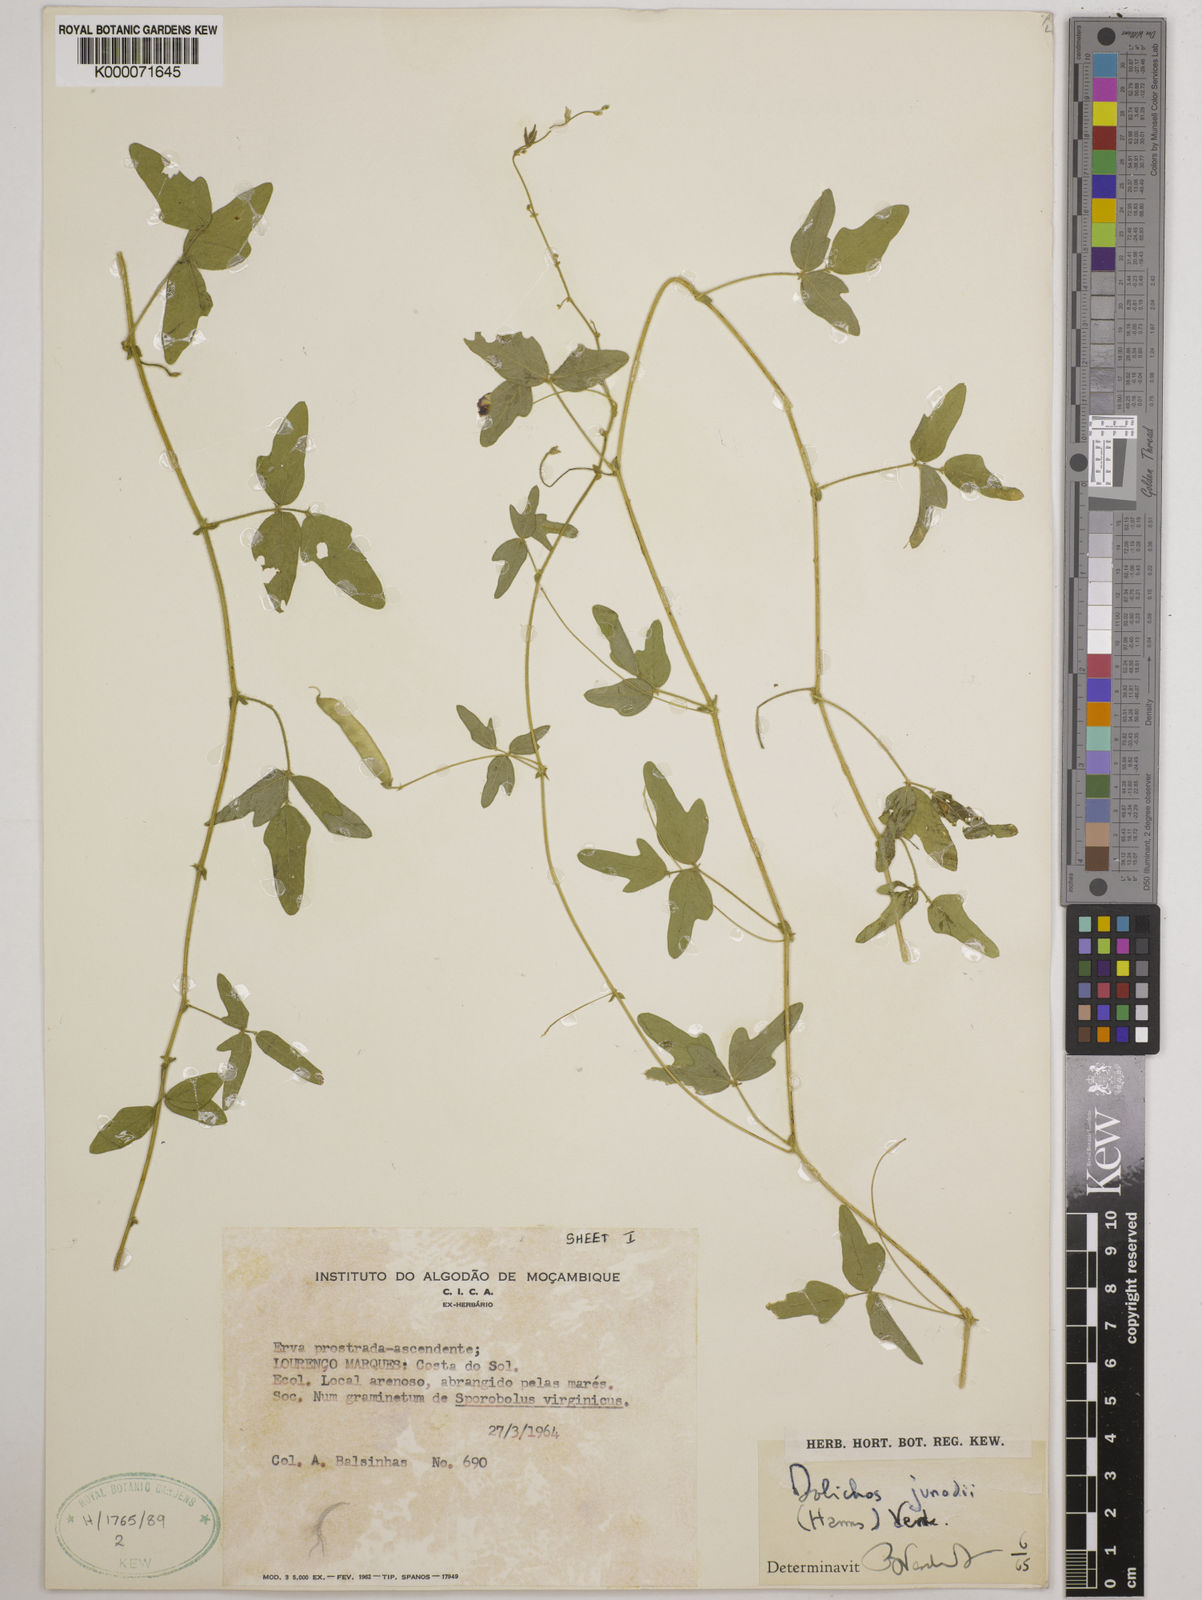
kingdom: Plantae
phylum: Tracheophyta
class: Magnoliopsida
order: Fabales
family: Fabaceae
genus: Dolichos
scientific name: Dolichos junodii
